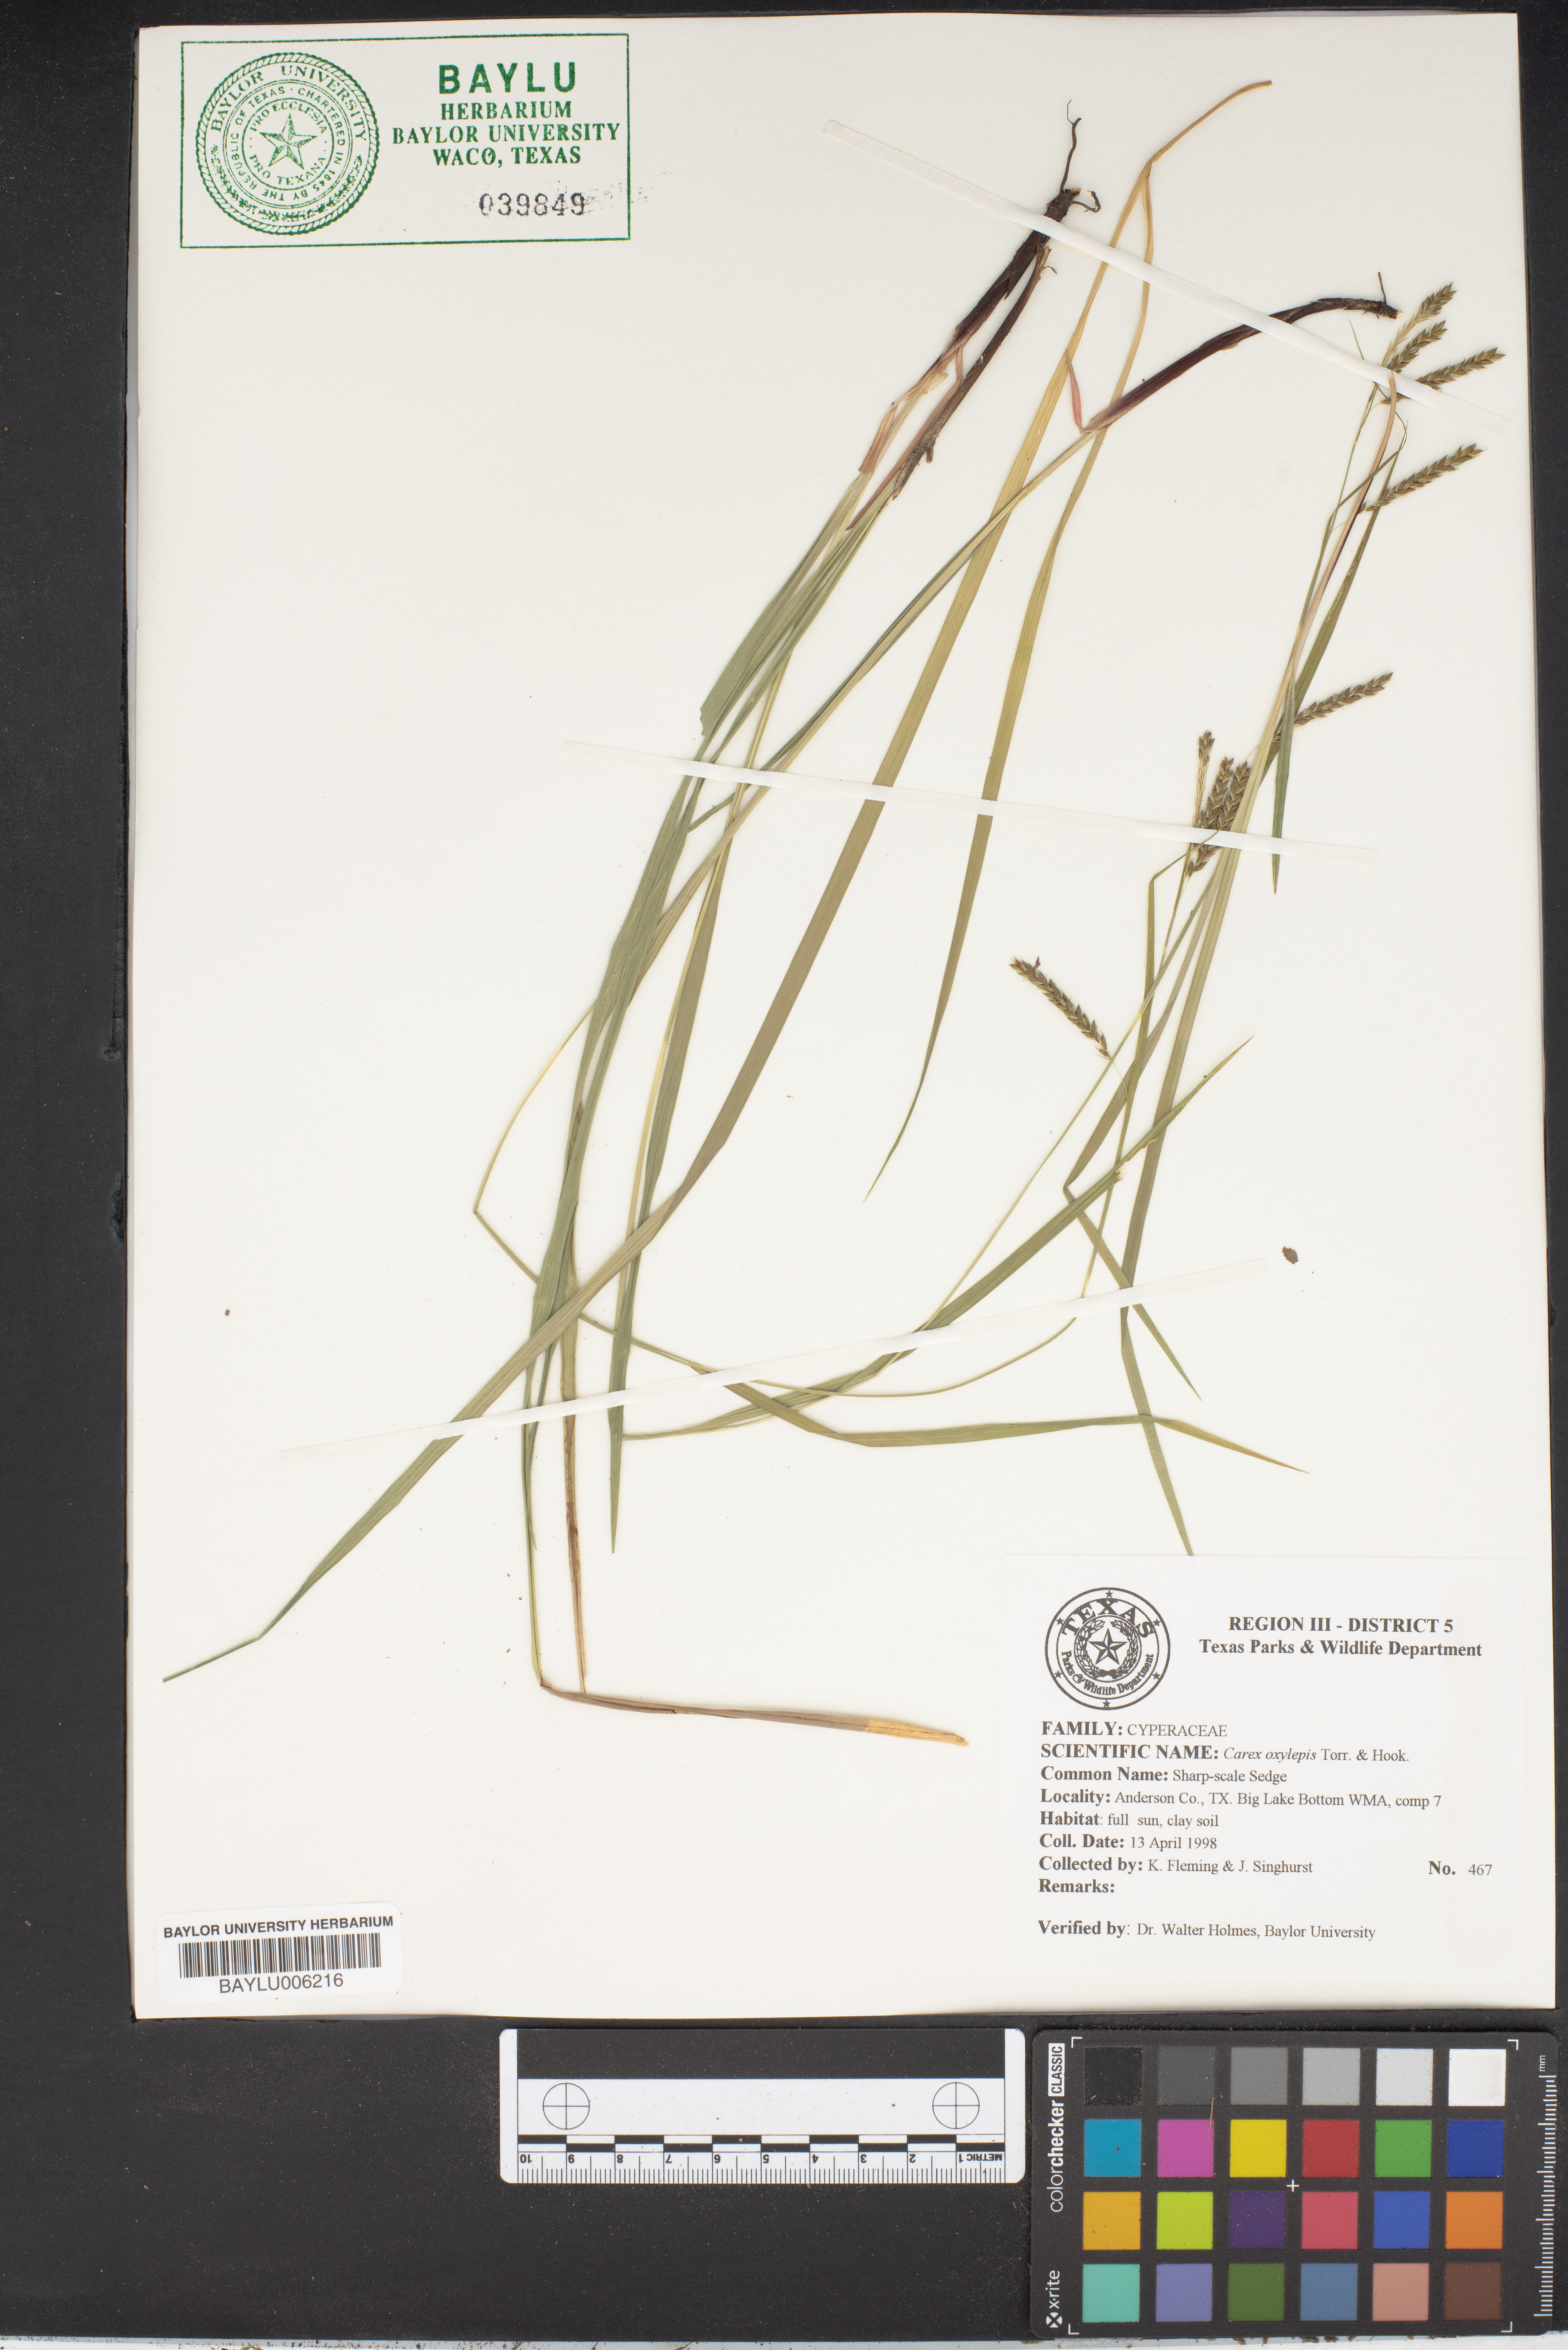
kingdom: Plantae
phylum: Tracheophyta
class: Liliopsida
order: Poales
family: Cyperaceae
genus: Carex
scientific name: Carex oxylepis
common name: Sharpscale sedge
